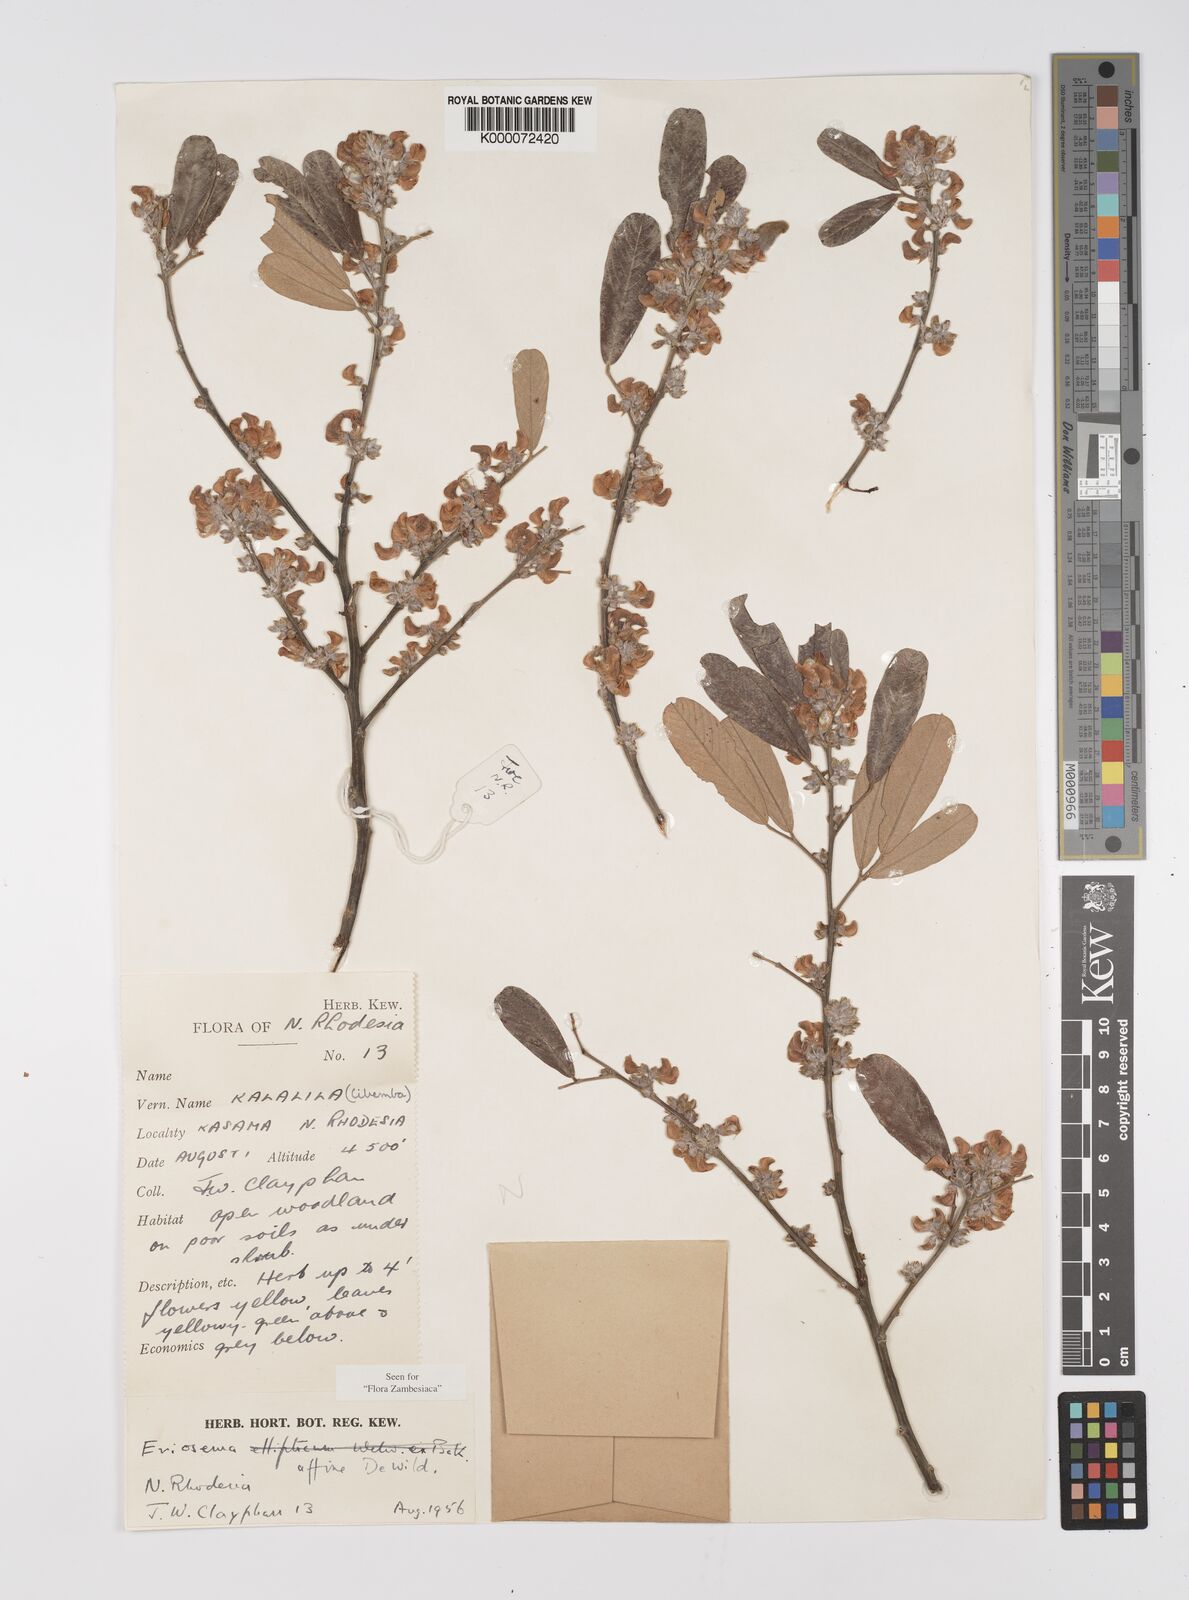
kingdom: Plantae
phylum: Tracheophyta
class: Magnoliopsida
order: Fabales
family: Fabaceae
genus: Eriosema
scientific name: Eriosema affine
